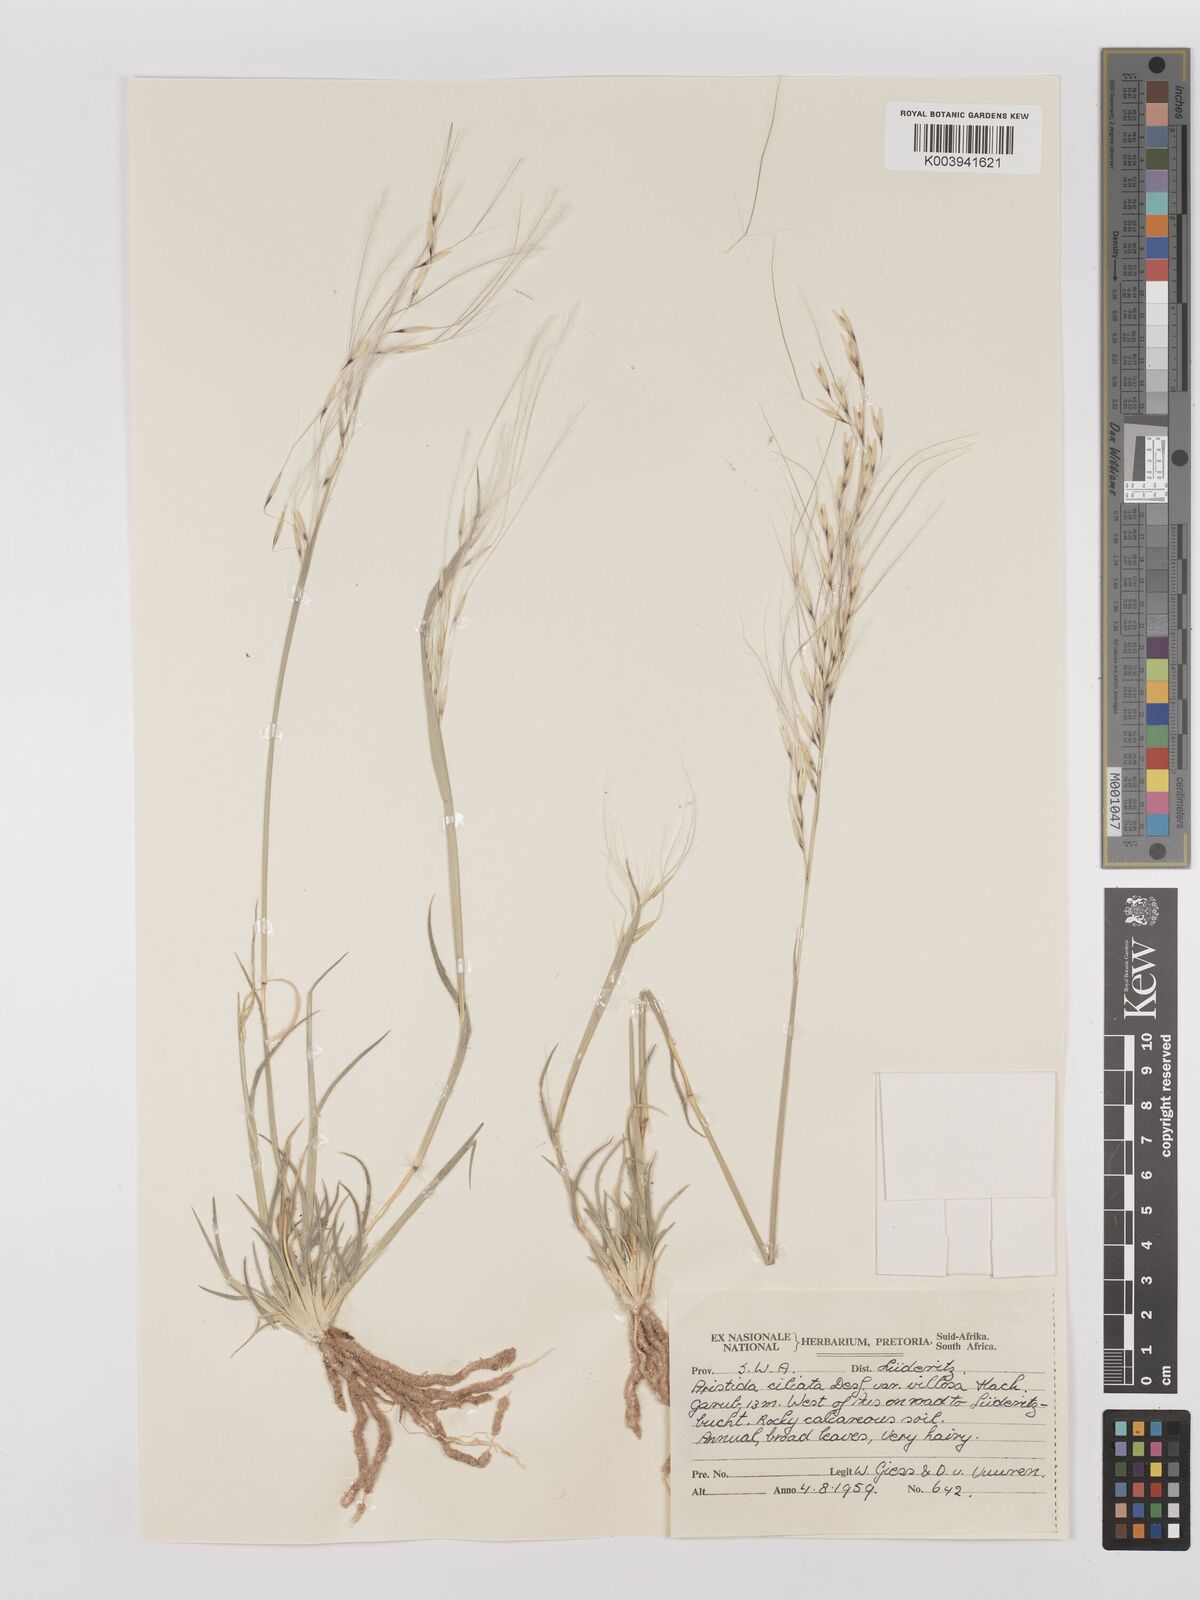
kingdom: Plantae
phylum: Tracheophyta
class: Liliopsida
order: Poales
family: Poaceae
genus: Stipagrostis
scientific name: Stipagrostis ciliata
